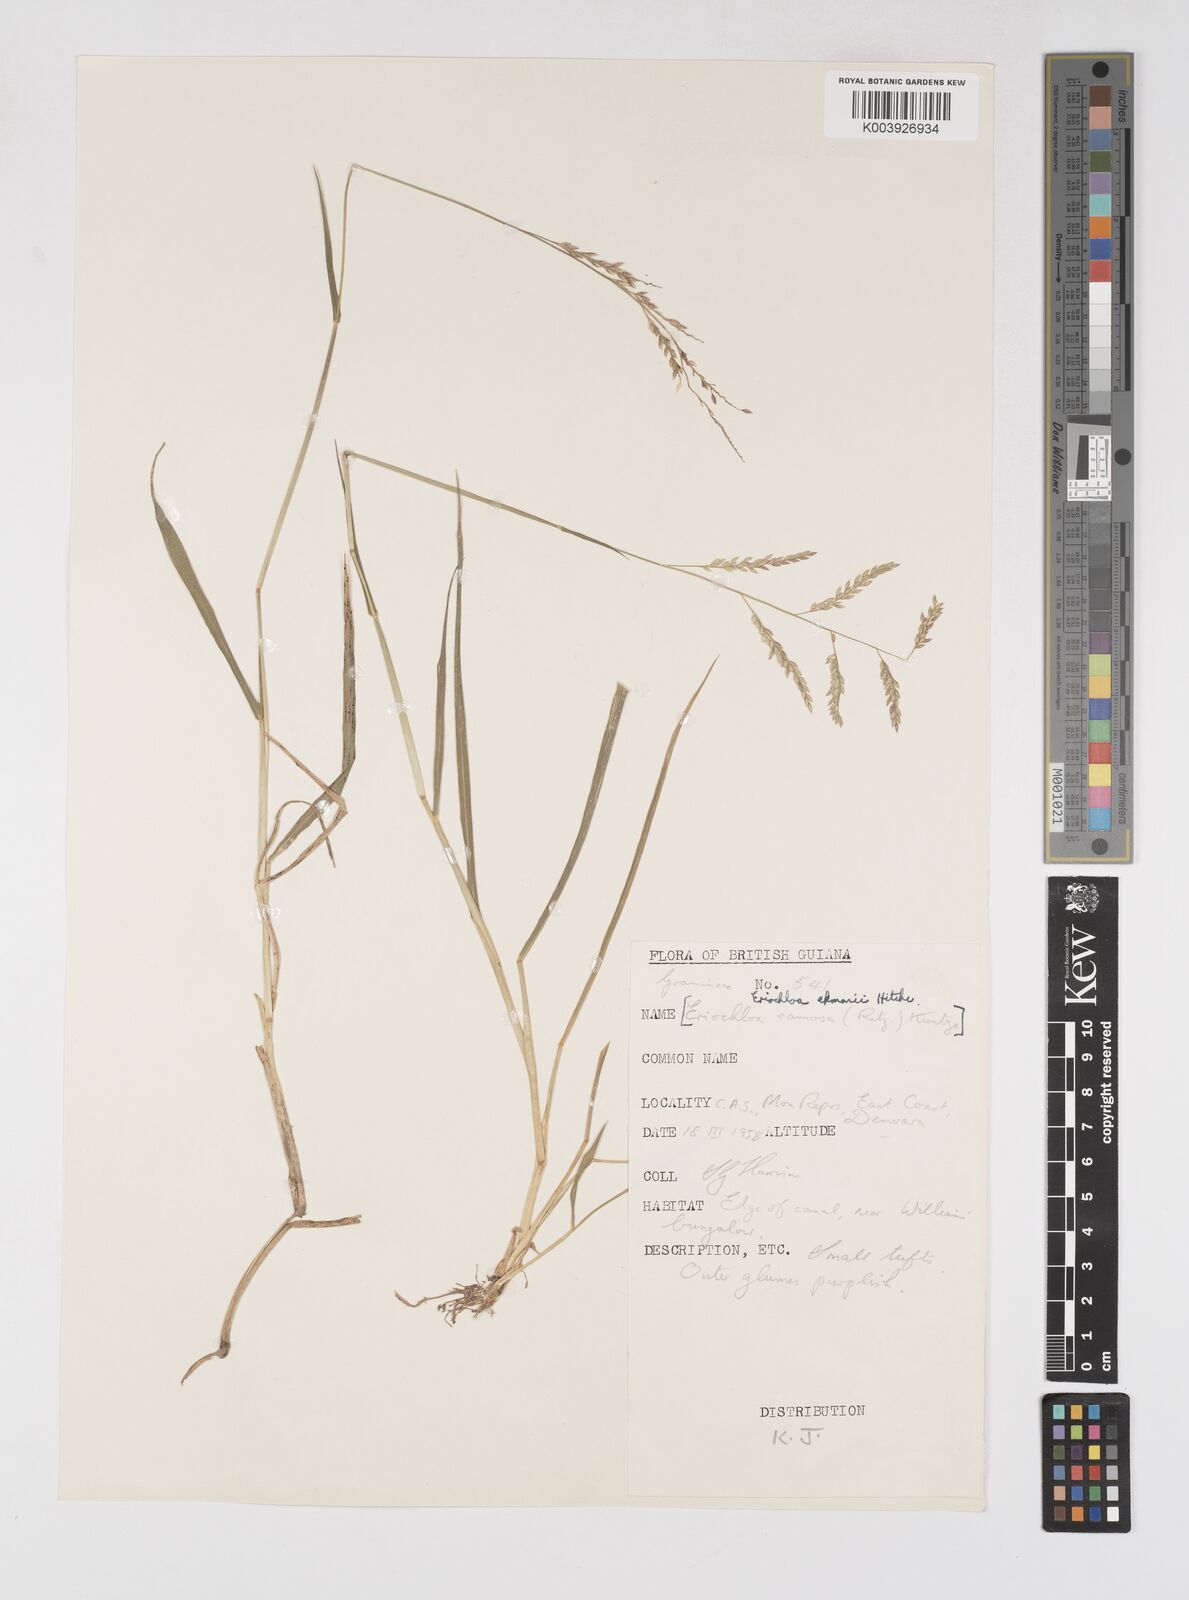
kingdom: Plantae
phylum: Tracheophyta
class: Liliopsida
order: Poales
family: Poaceae
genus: Eriochloa
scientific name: Eriochloa procera
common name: Spring grass
